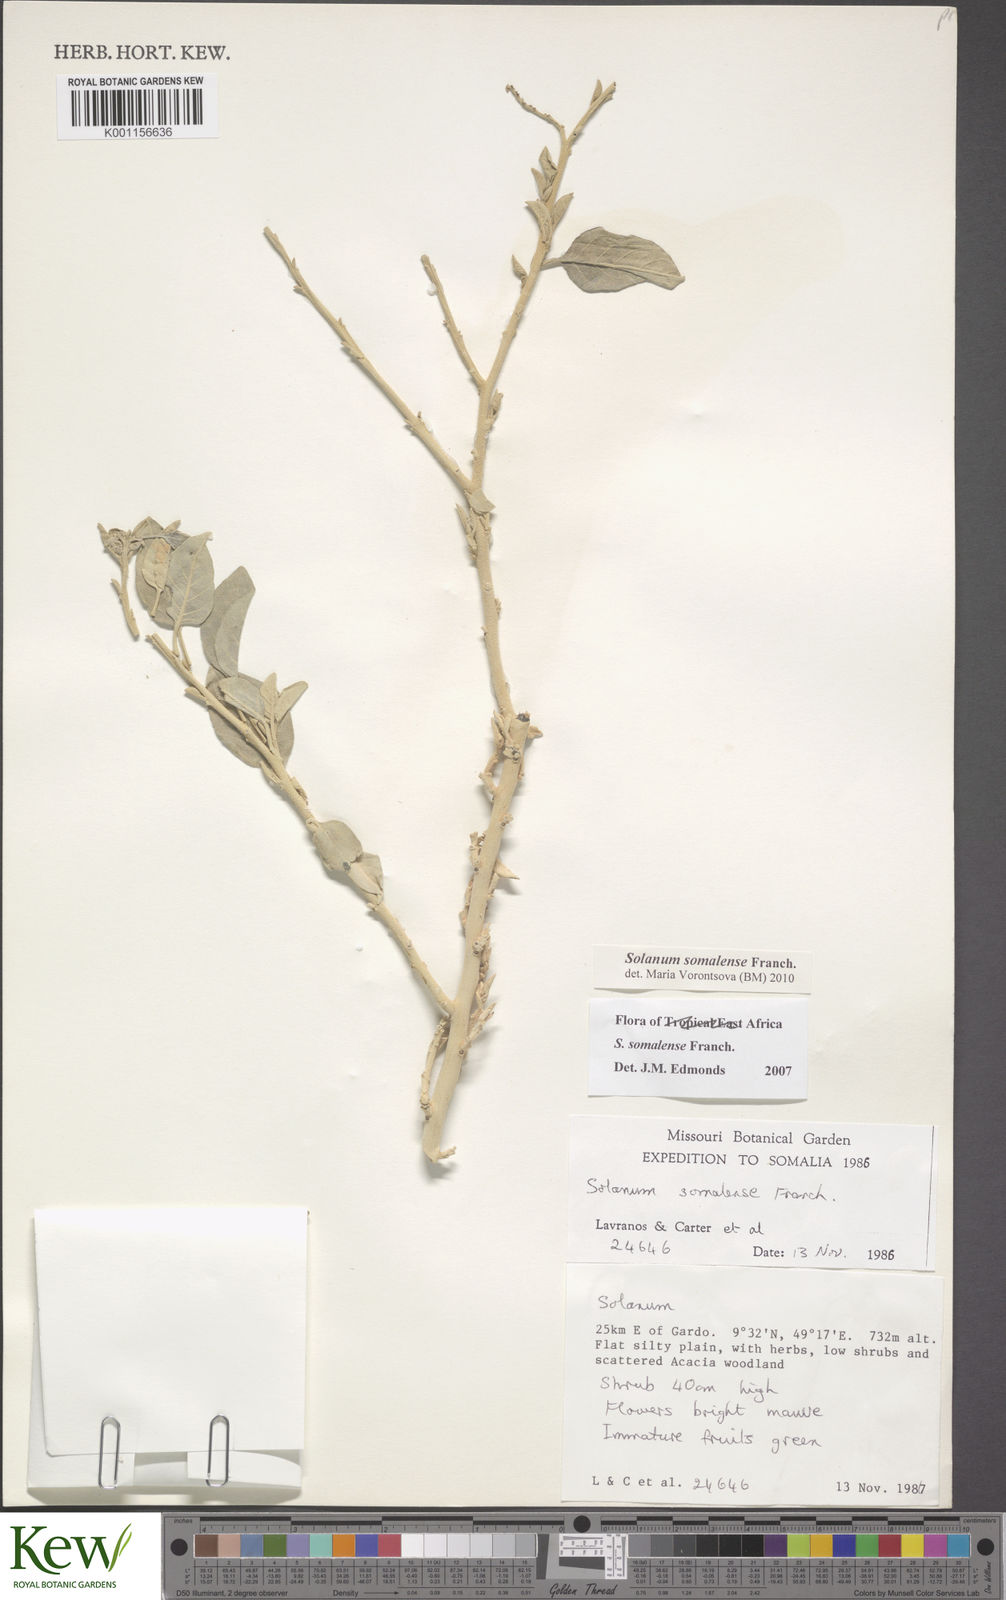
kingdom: Plantae
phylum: Tracheophyta
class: Magnoliopsida
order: Solanales
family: Solanaceae
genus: Solanum
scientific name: Solanum somalense
